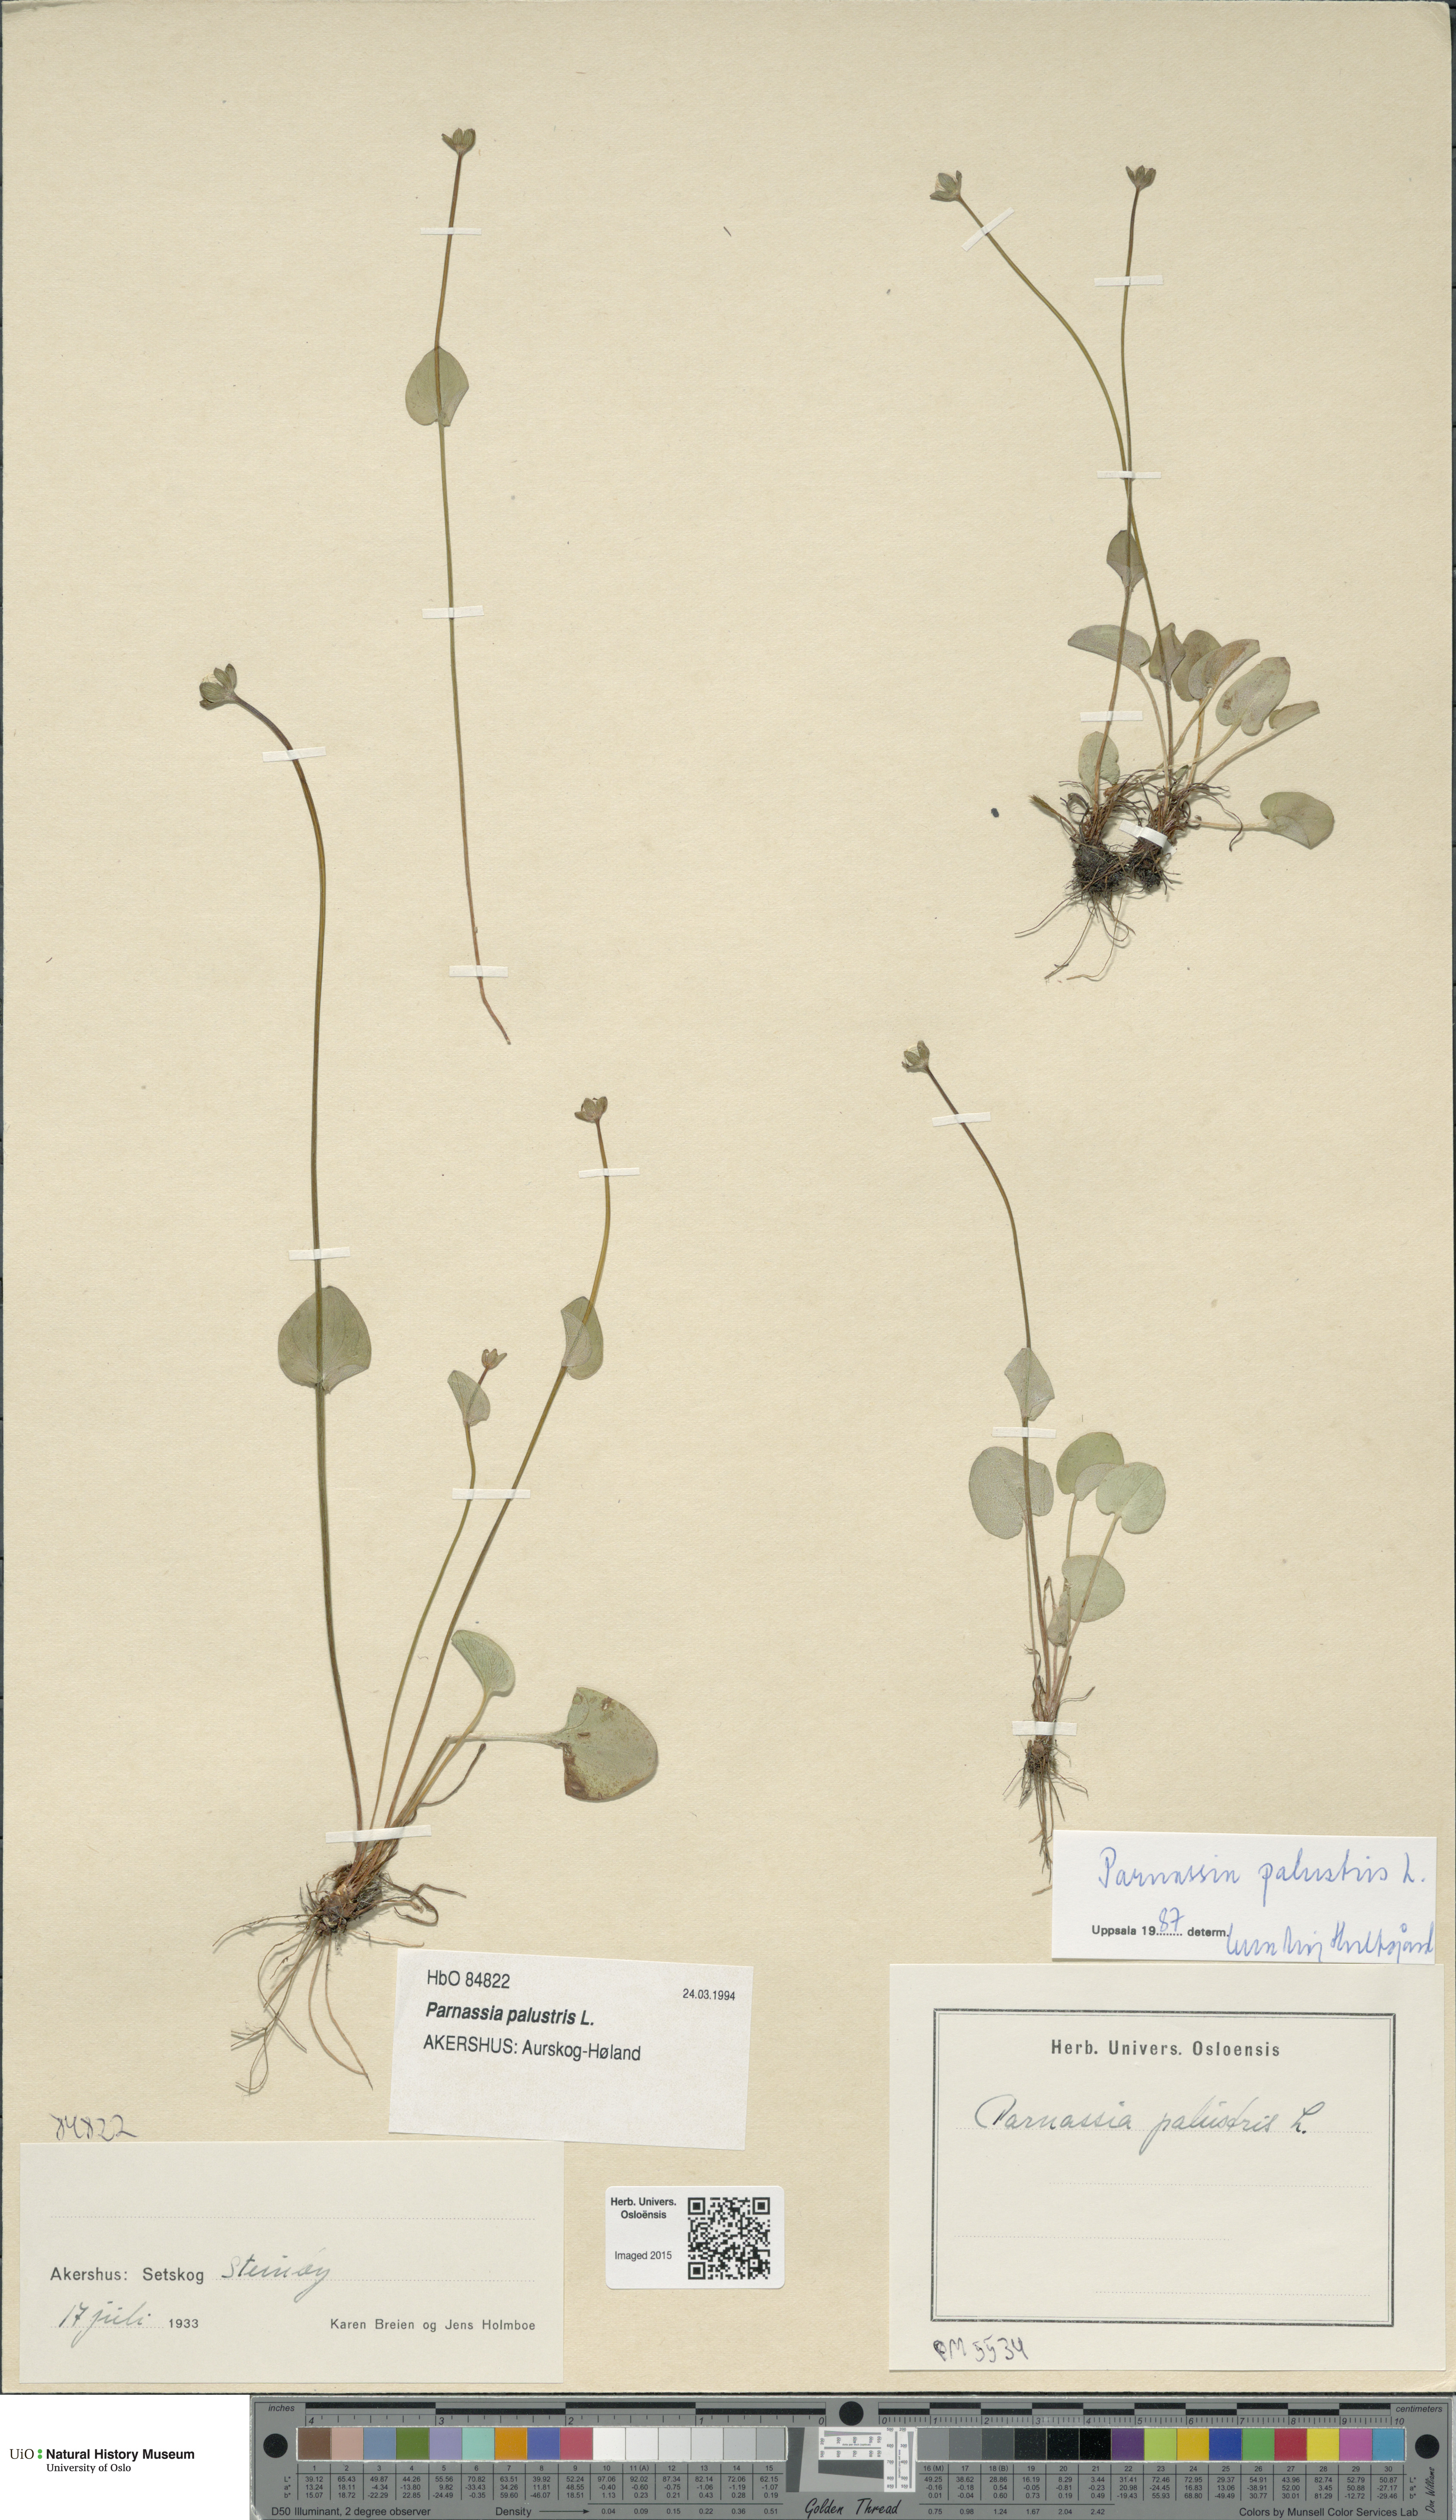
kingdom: Plantae
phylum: Tracheophyta
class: Magnoliopsida
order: Celastrales
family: Parnassiaceae
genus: Parnassia
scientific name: Parnassia palustris
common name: Grass-of-parnassus
